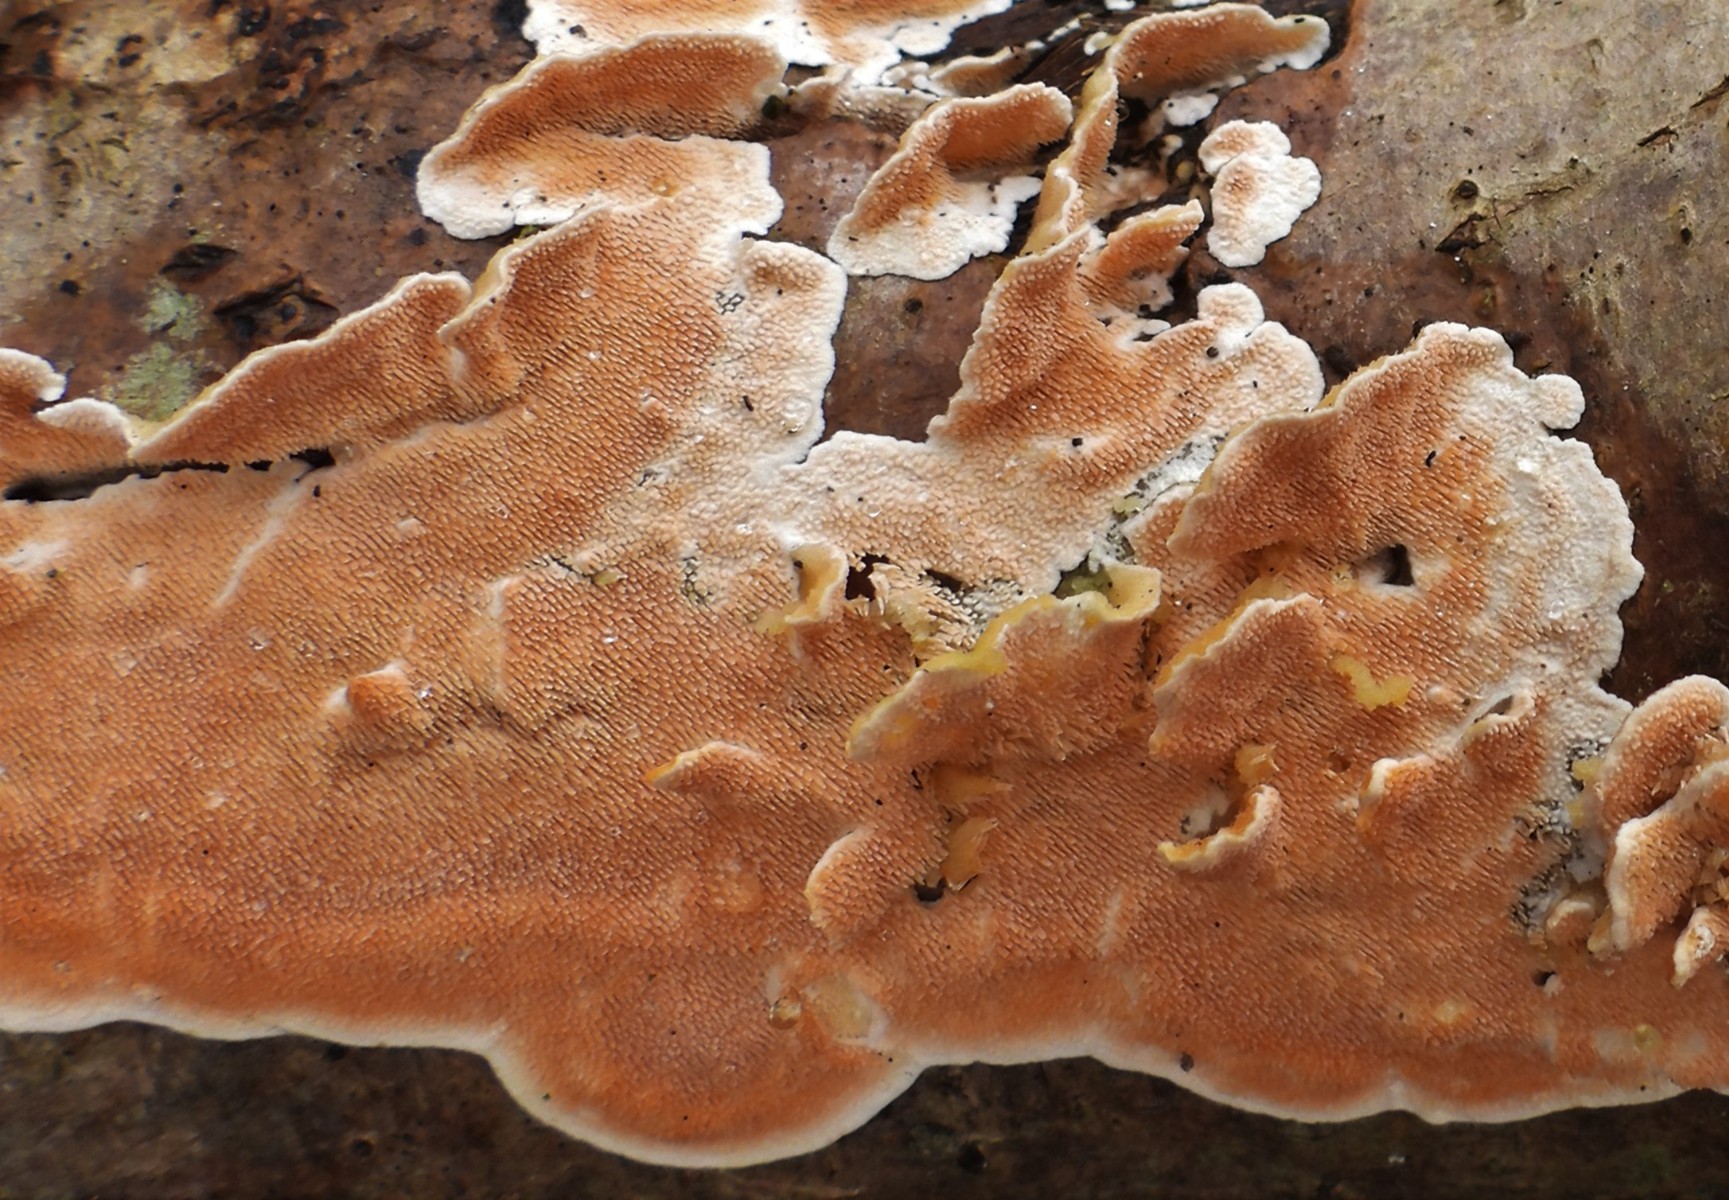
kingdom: Fungi
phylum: Basidiomycota
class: Agaricomycetes
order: Polyporales
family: Steccherinaceae
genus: Steccherinum
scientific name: Steccherinum ochraceum
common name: almindelig skønpig
